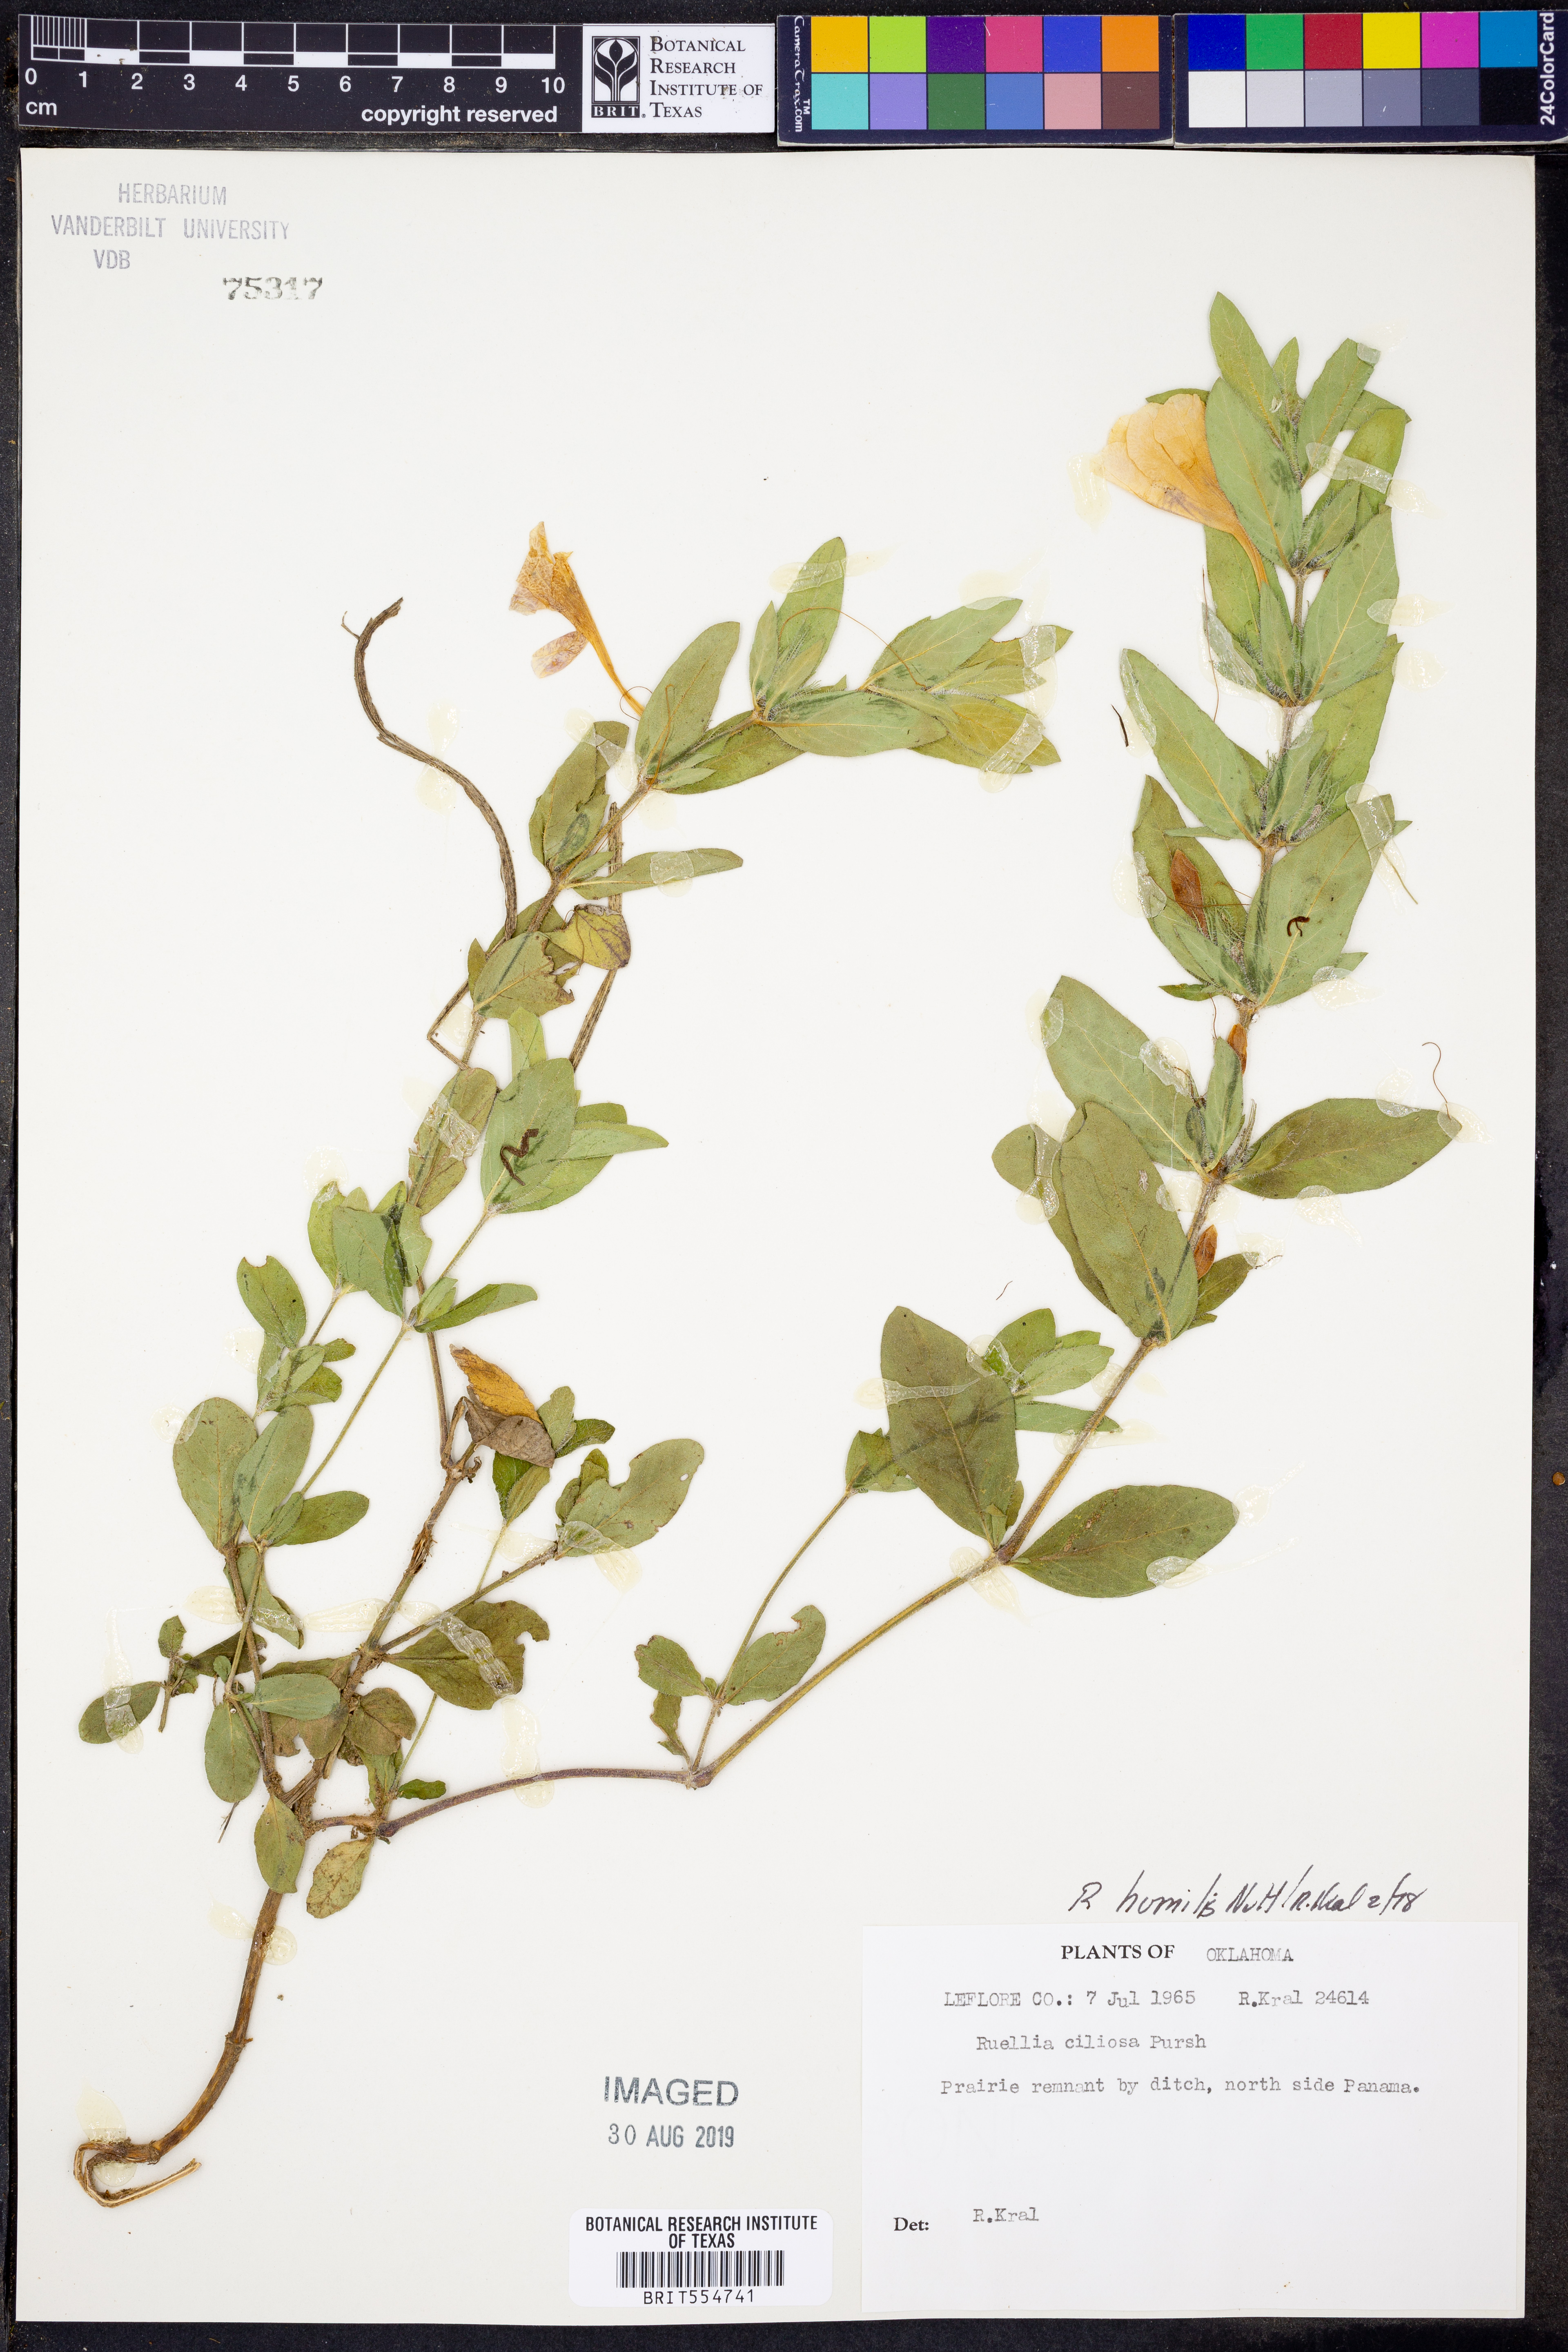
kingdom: Plantae
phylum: Tracheophyta
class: Magnoliopsida
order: Lamiales
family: Acanthaceae
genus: Ruellia
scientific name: Ruellia humilis
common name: Fringe-leaf ruellia
